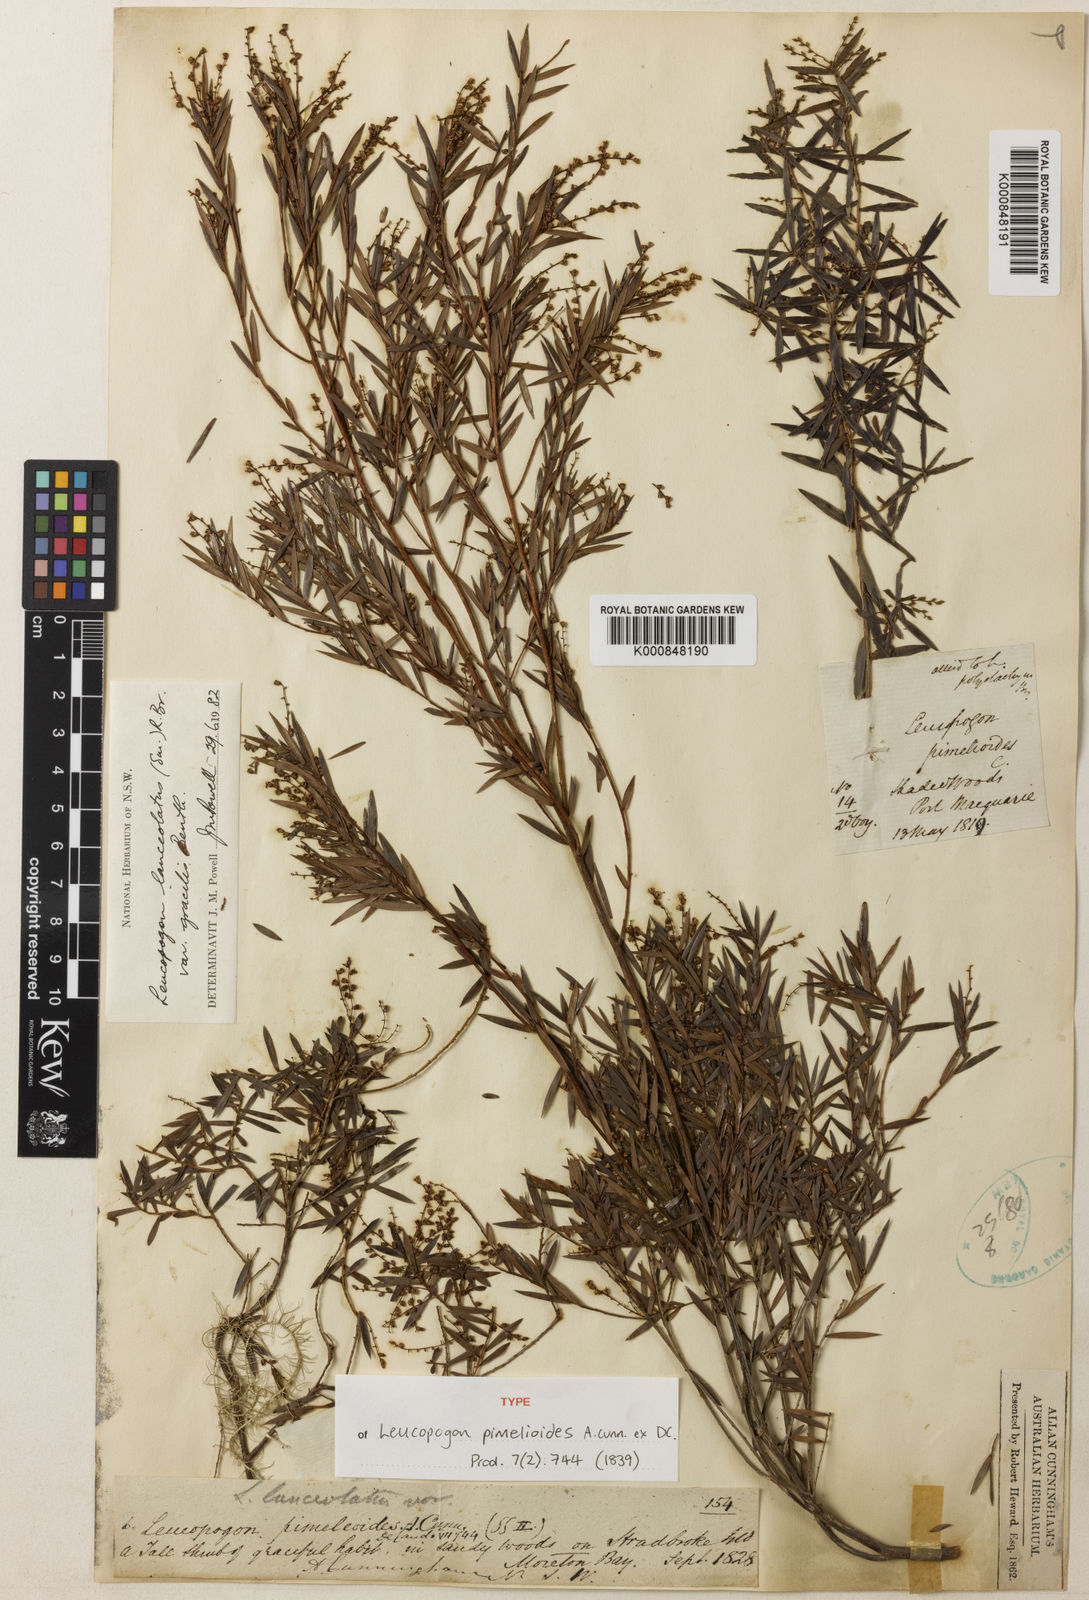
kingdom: Plantae
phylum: Tracheophyta
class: Magnoliopsida
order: Ericales
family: Ericaceae
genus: Leucopogon
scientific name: Leucopogon pimeleoides
